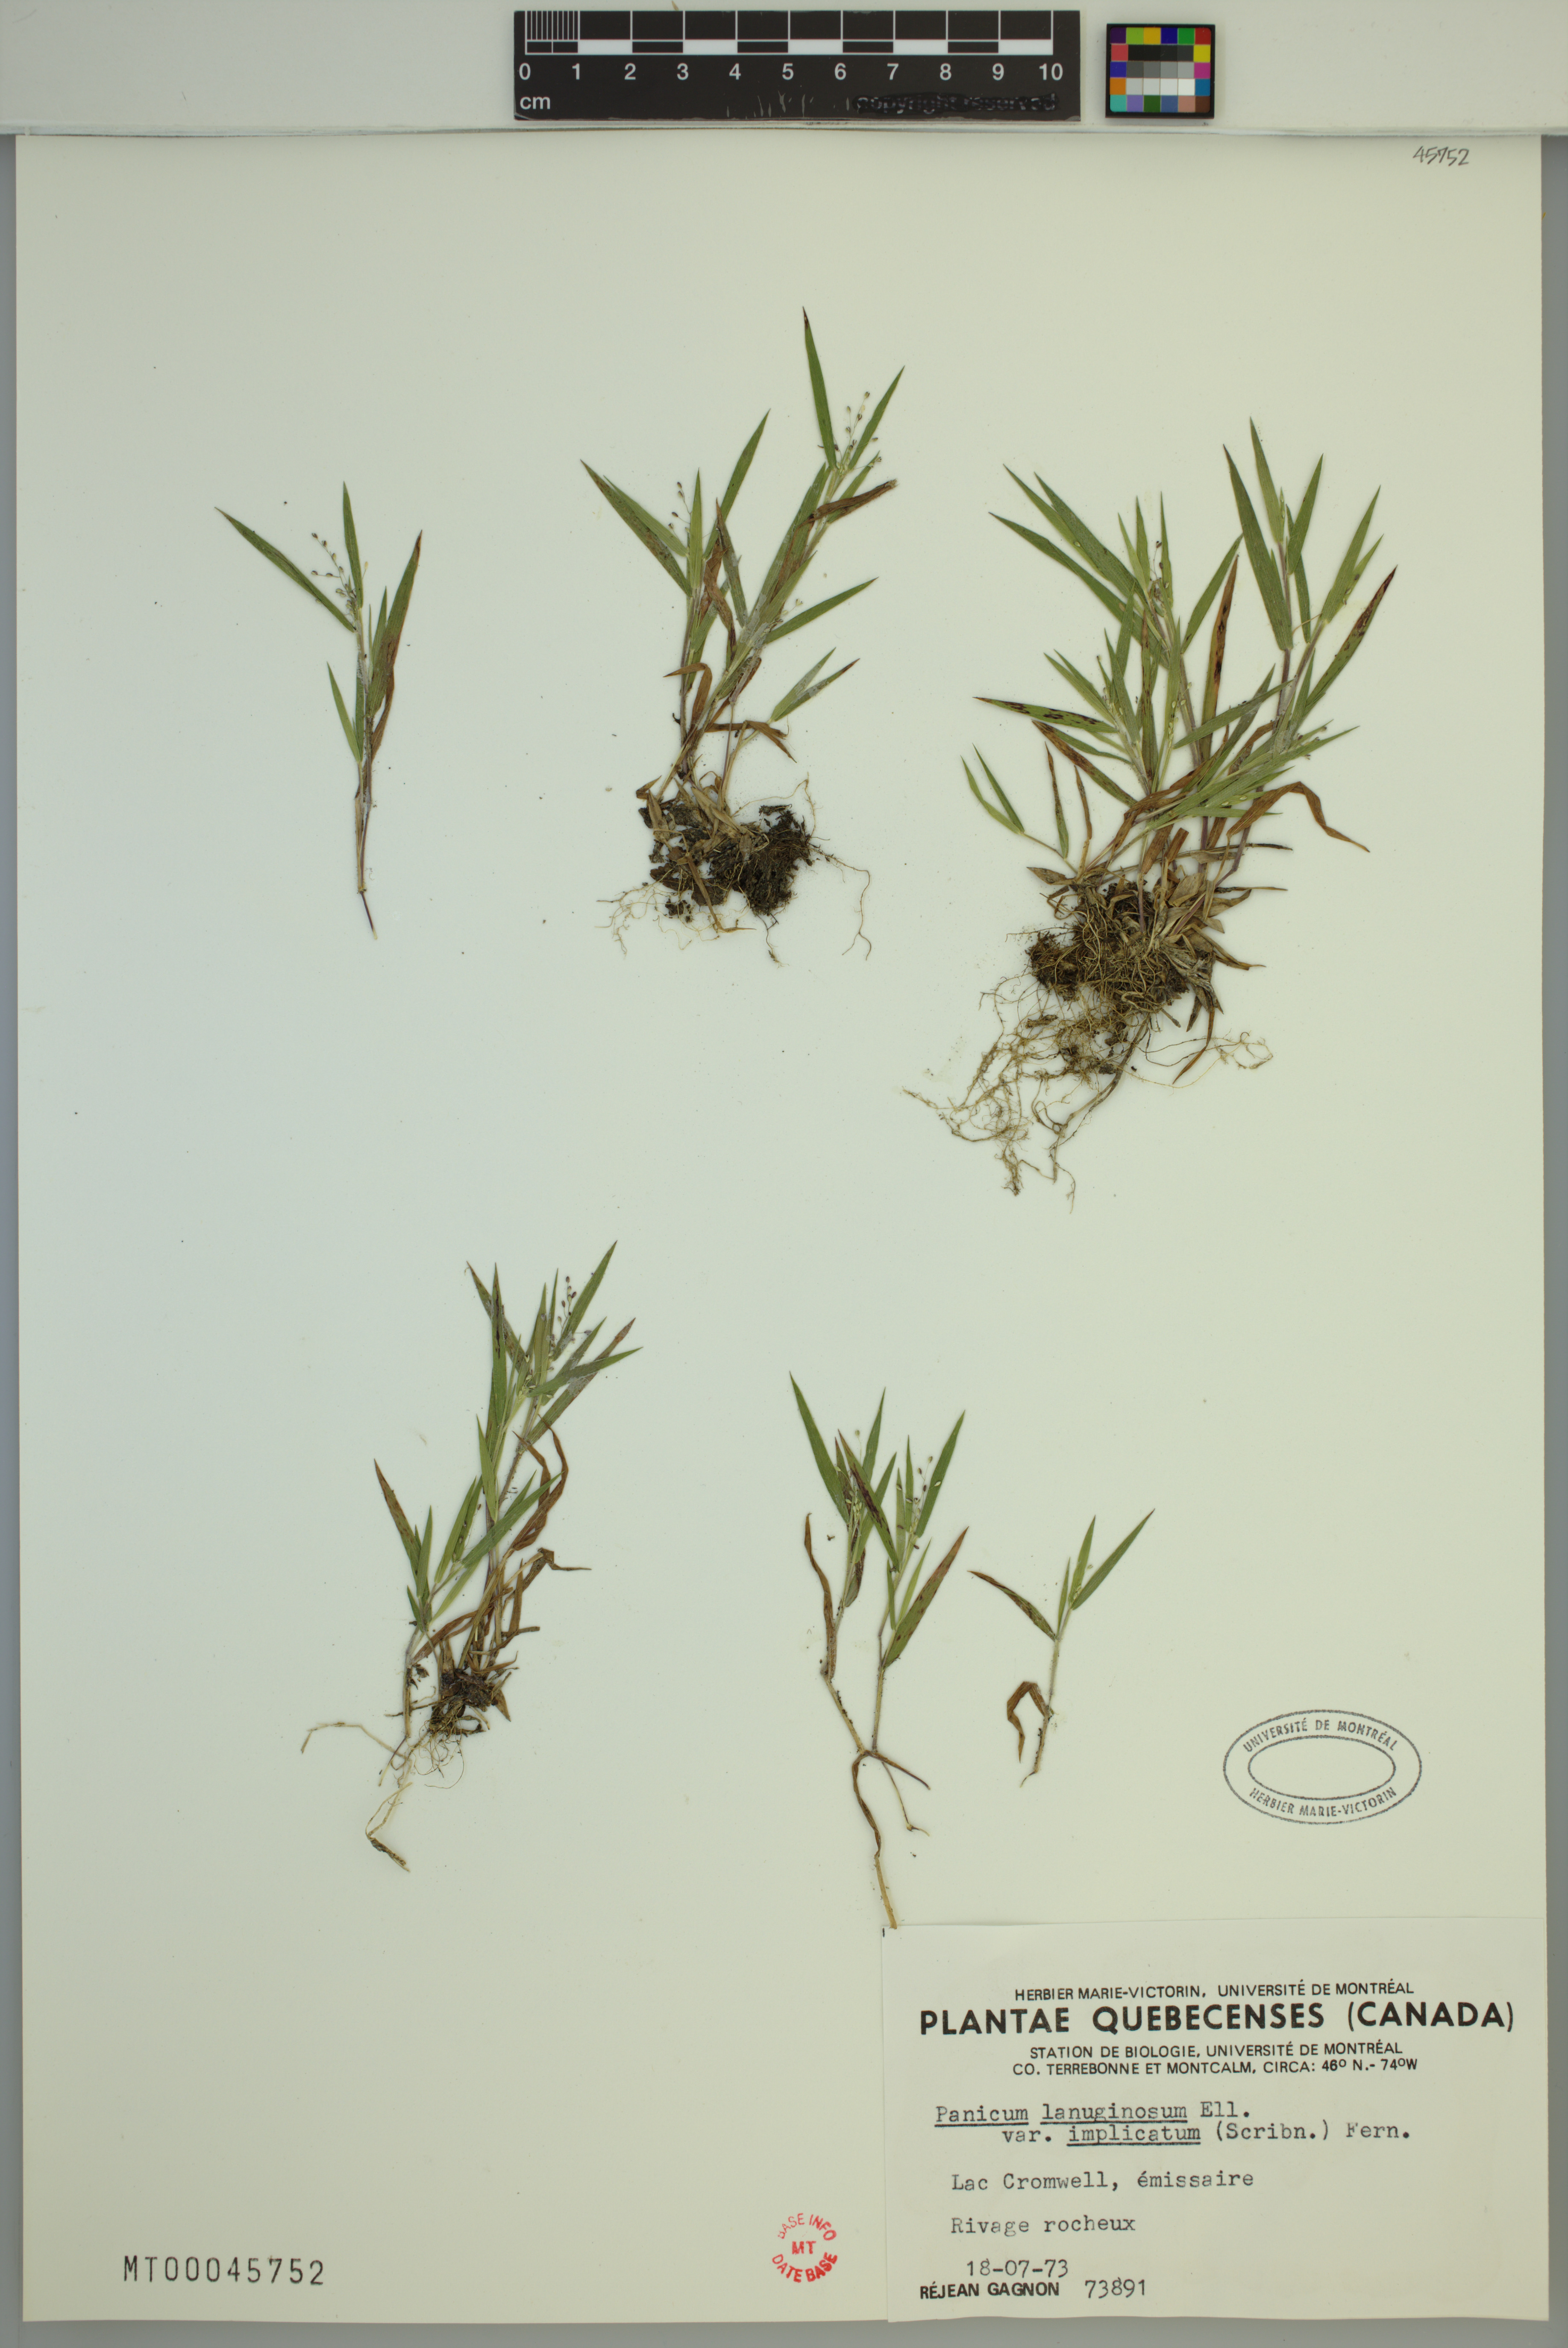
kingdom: Plantae
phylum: Tracheophyta
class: Liliopsida
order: Poales
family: Poaceae
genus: Dichanthelium
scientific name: Dichanthelium implicatum
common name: Slender-stemmed panicgrass
